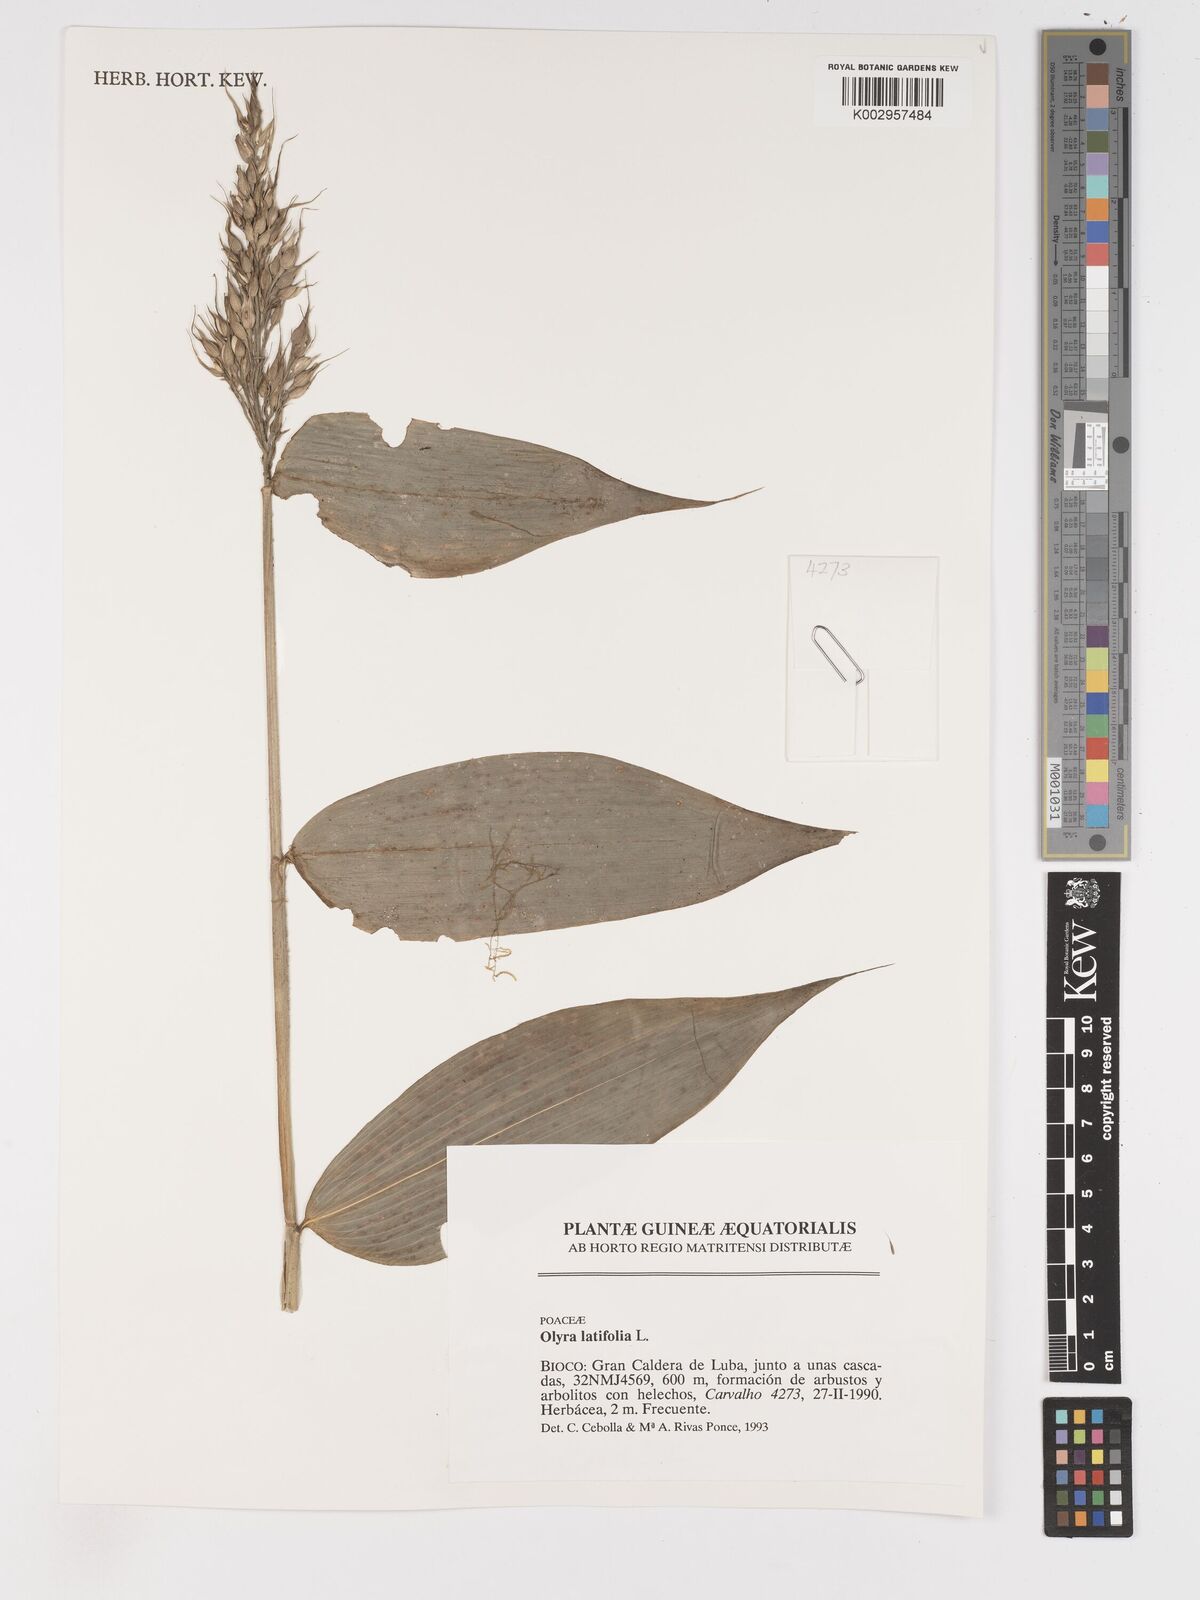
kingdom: Plantae
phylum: Tracheophyta
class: Liliopsida
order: Poales
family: Poaceae
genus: Olyra
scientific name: Olyra latifolia
